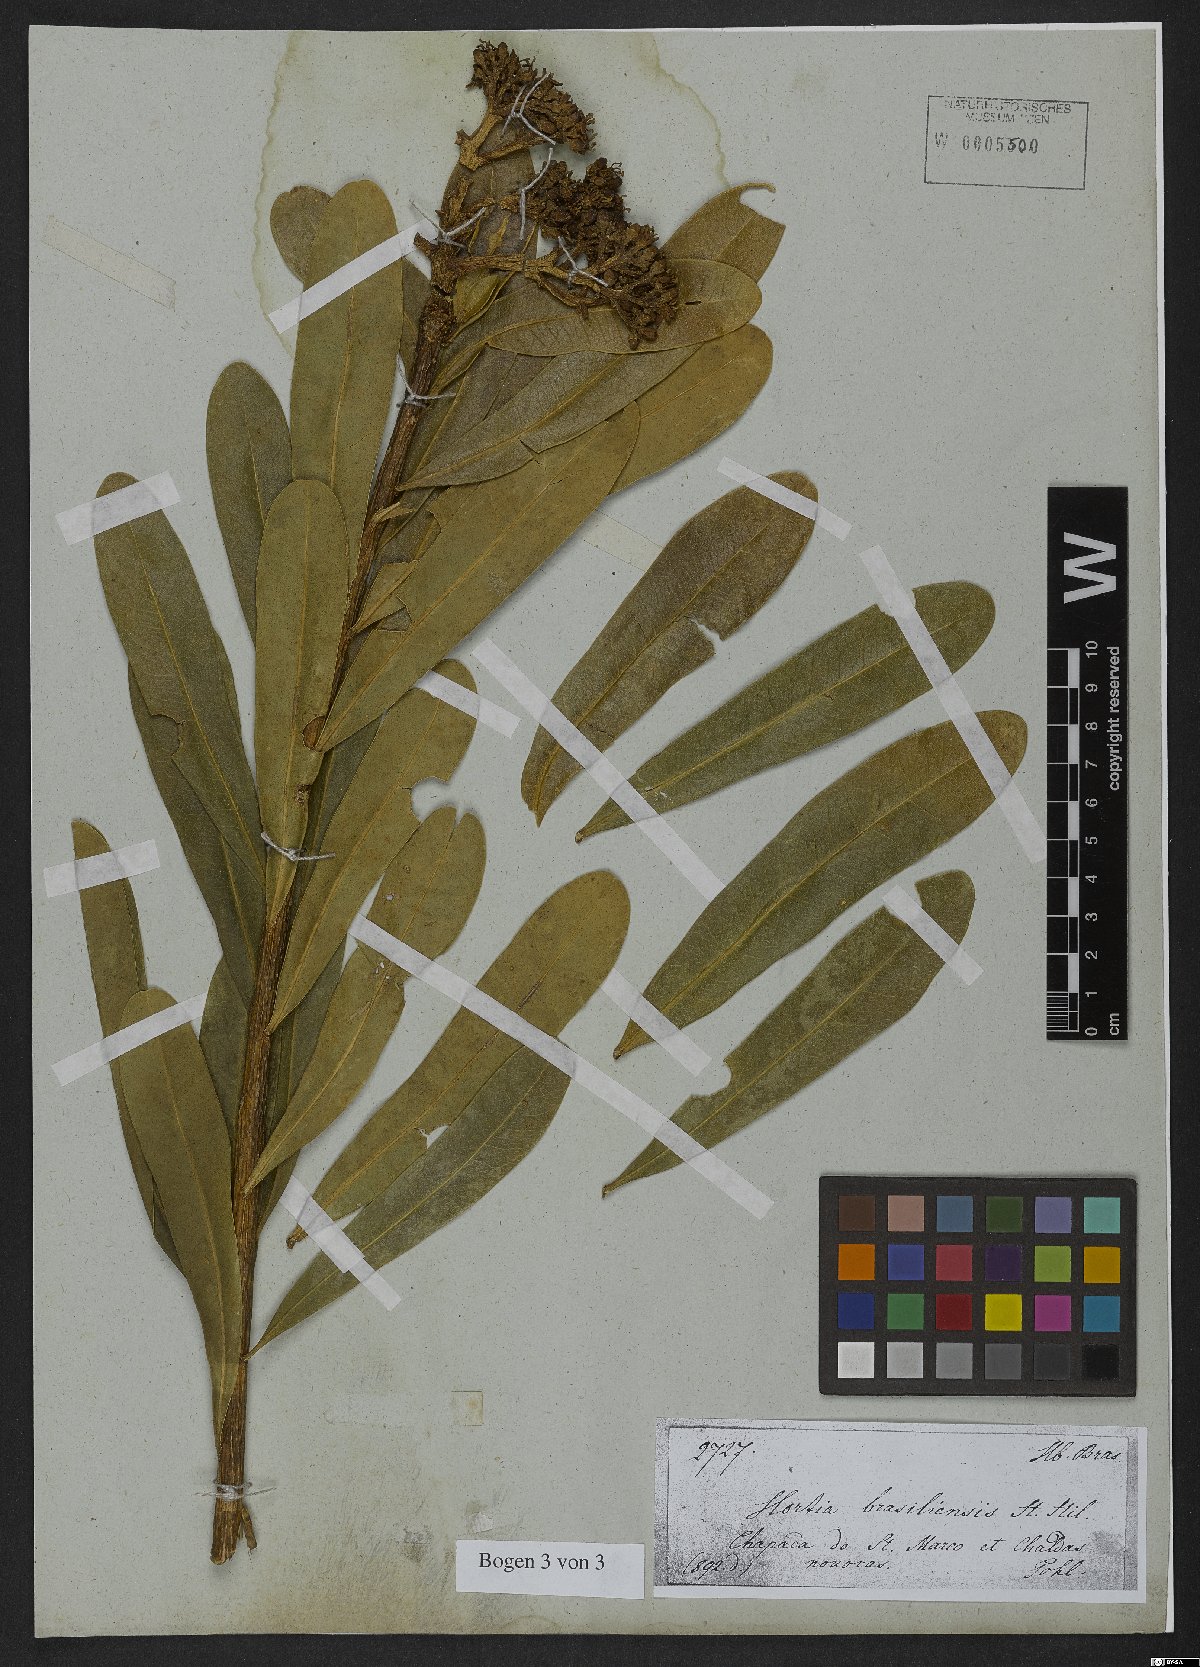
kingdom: Plantae
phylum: Tracheophyta
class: Magnoliopsida
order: Sapindales
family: Rutaceae
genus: Hortia
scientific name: Hortia brasiliana
